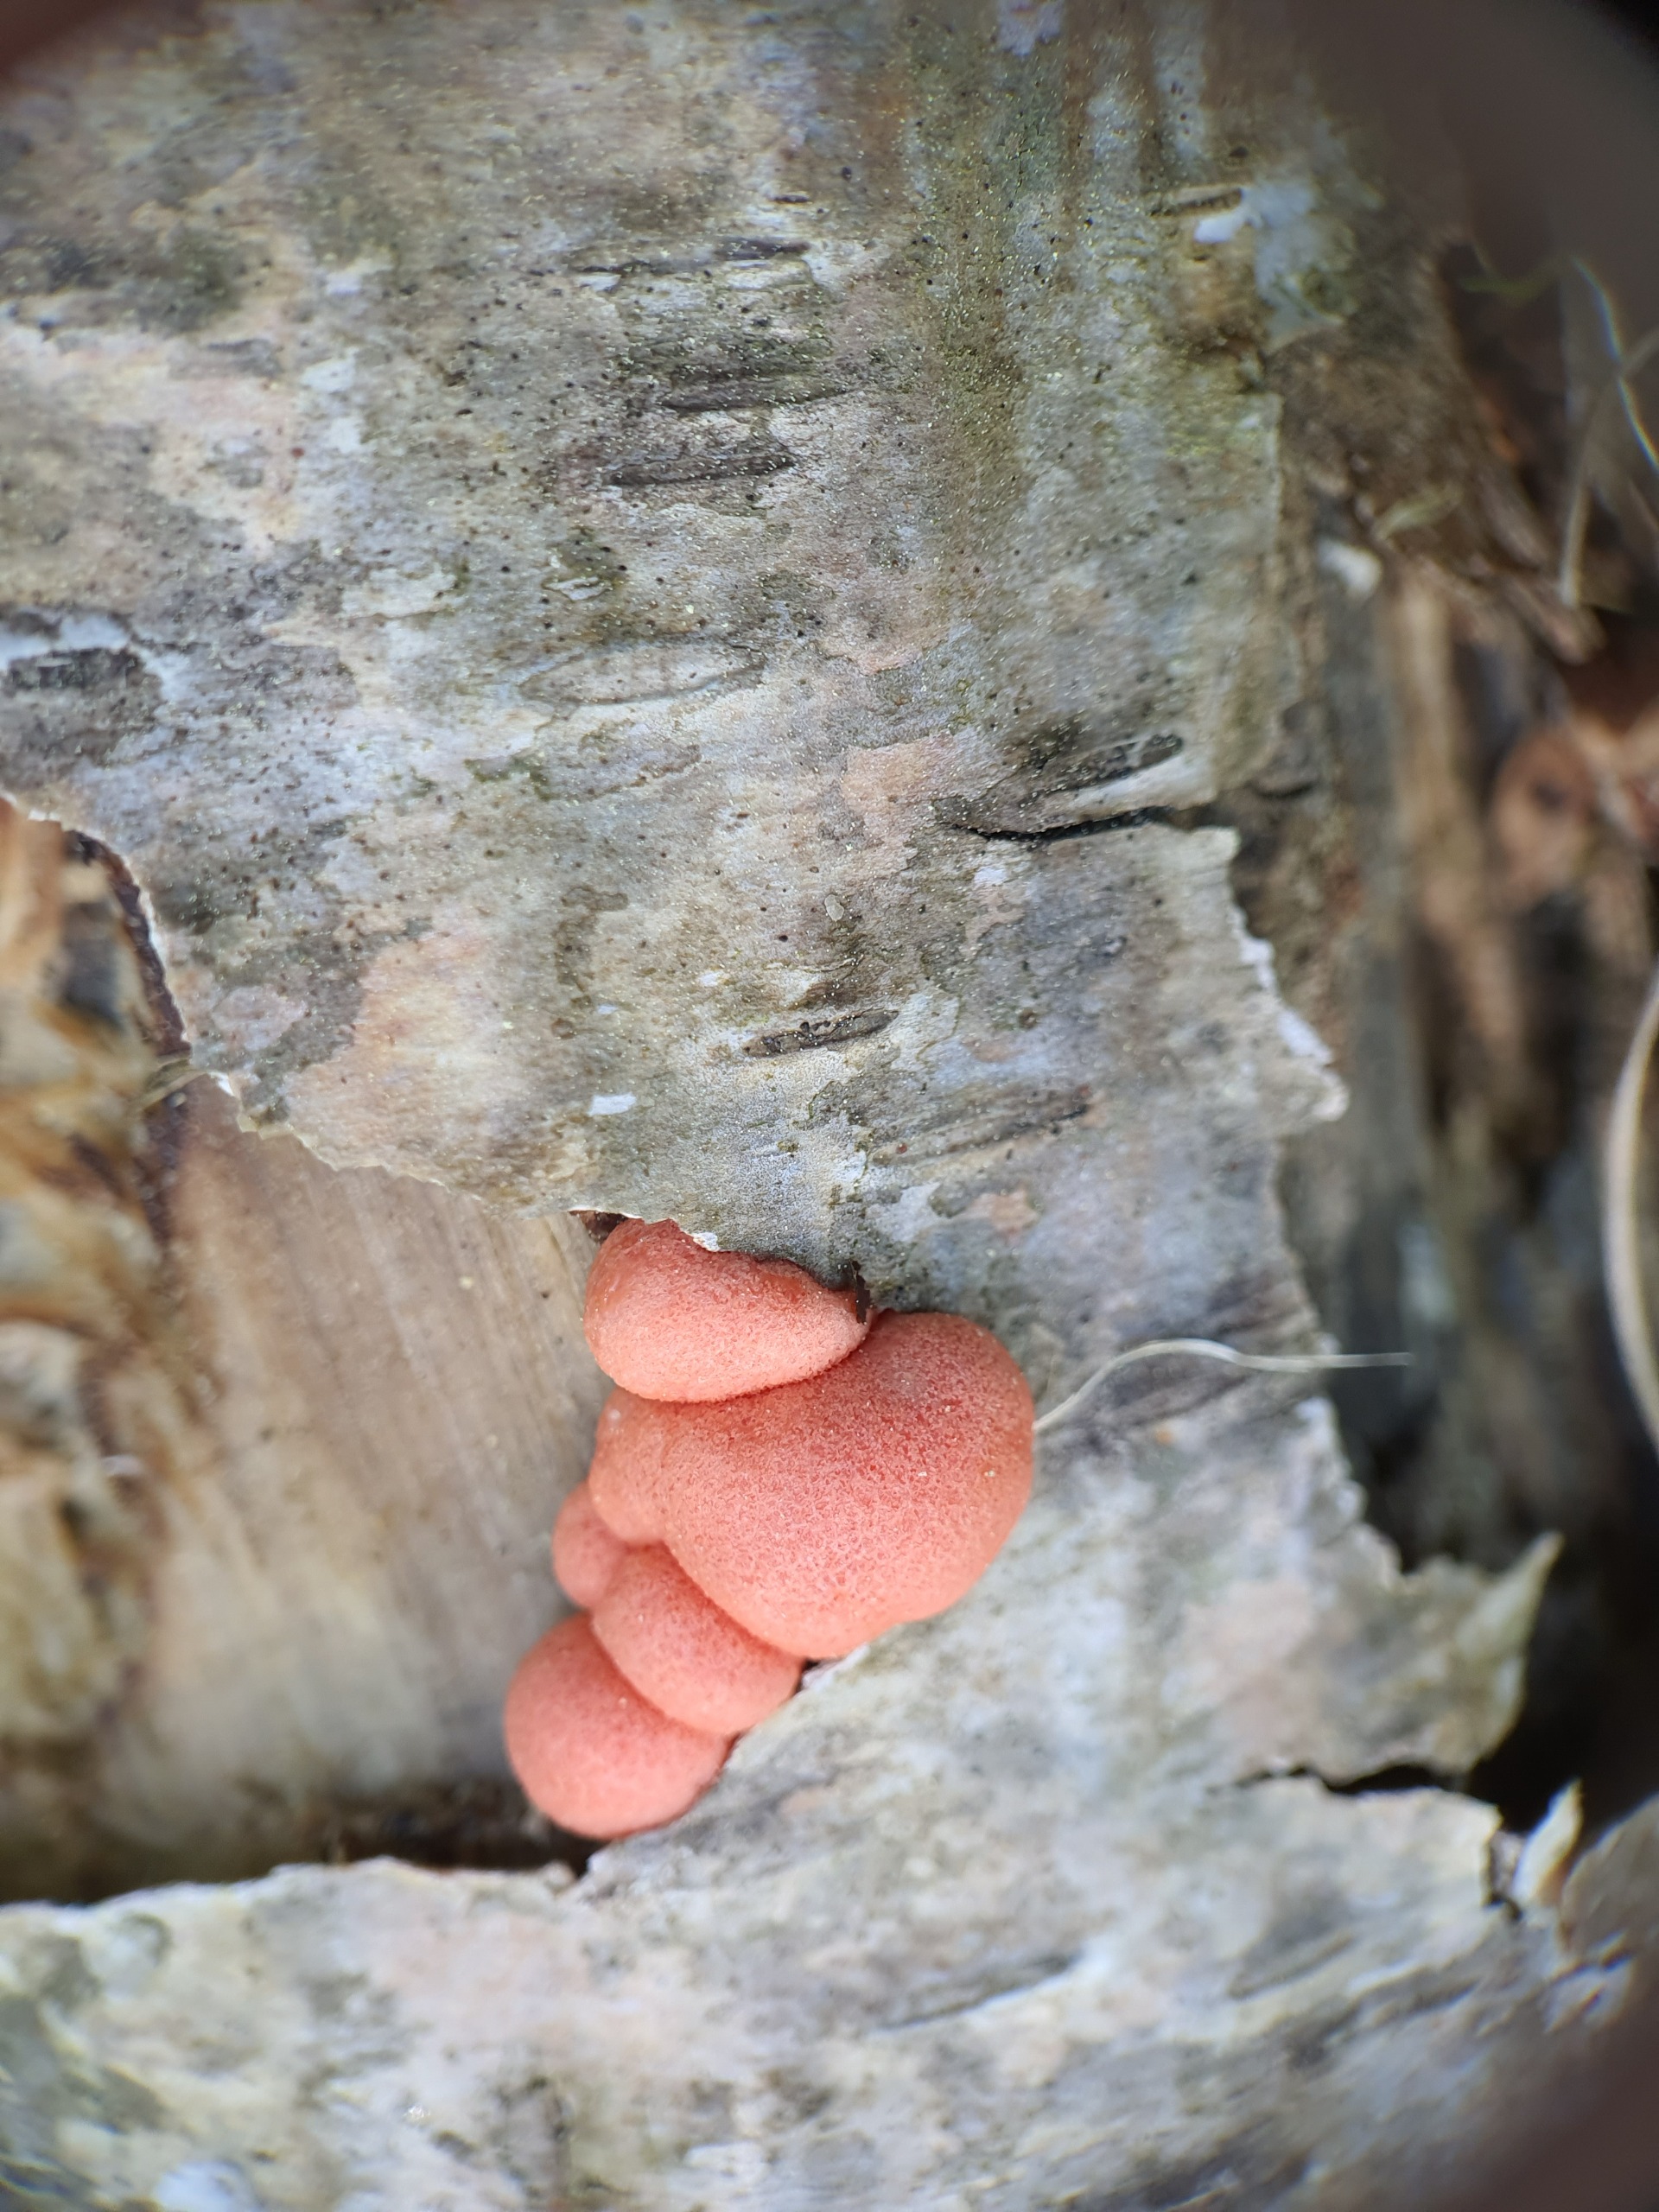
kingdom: Protozoa
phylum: Mycetozoa
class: Myxomycetes
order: Cribrariales
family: Tubiferaceae
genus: Lycogala
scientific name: Lycogala epidendrum
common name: Almindelig rødært
